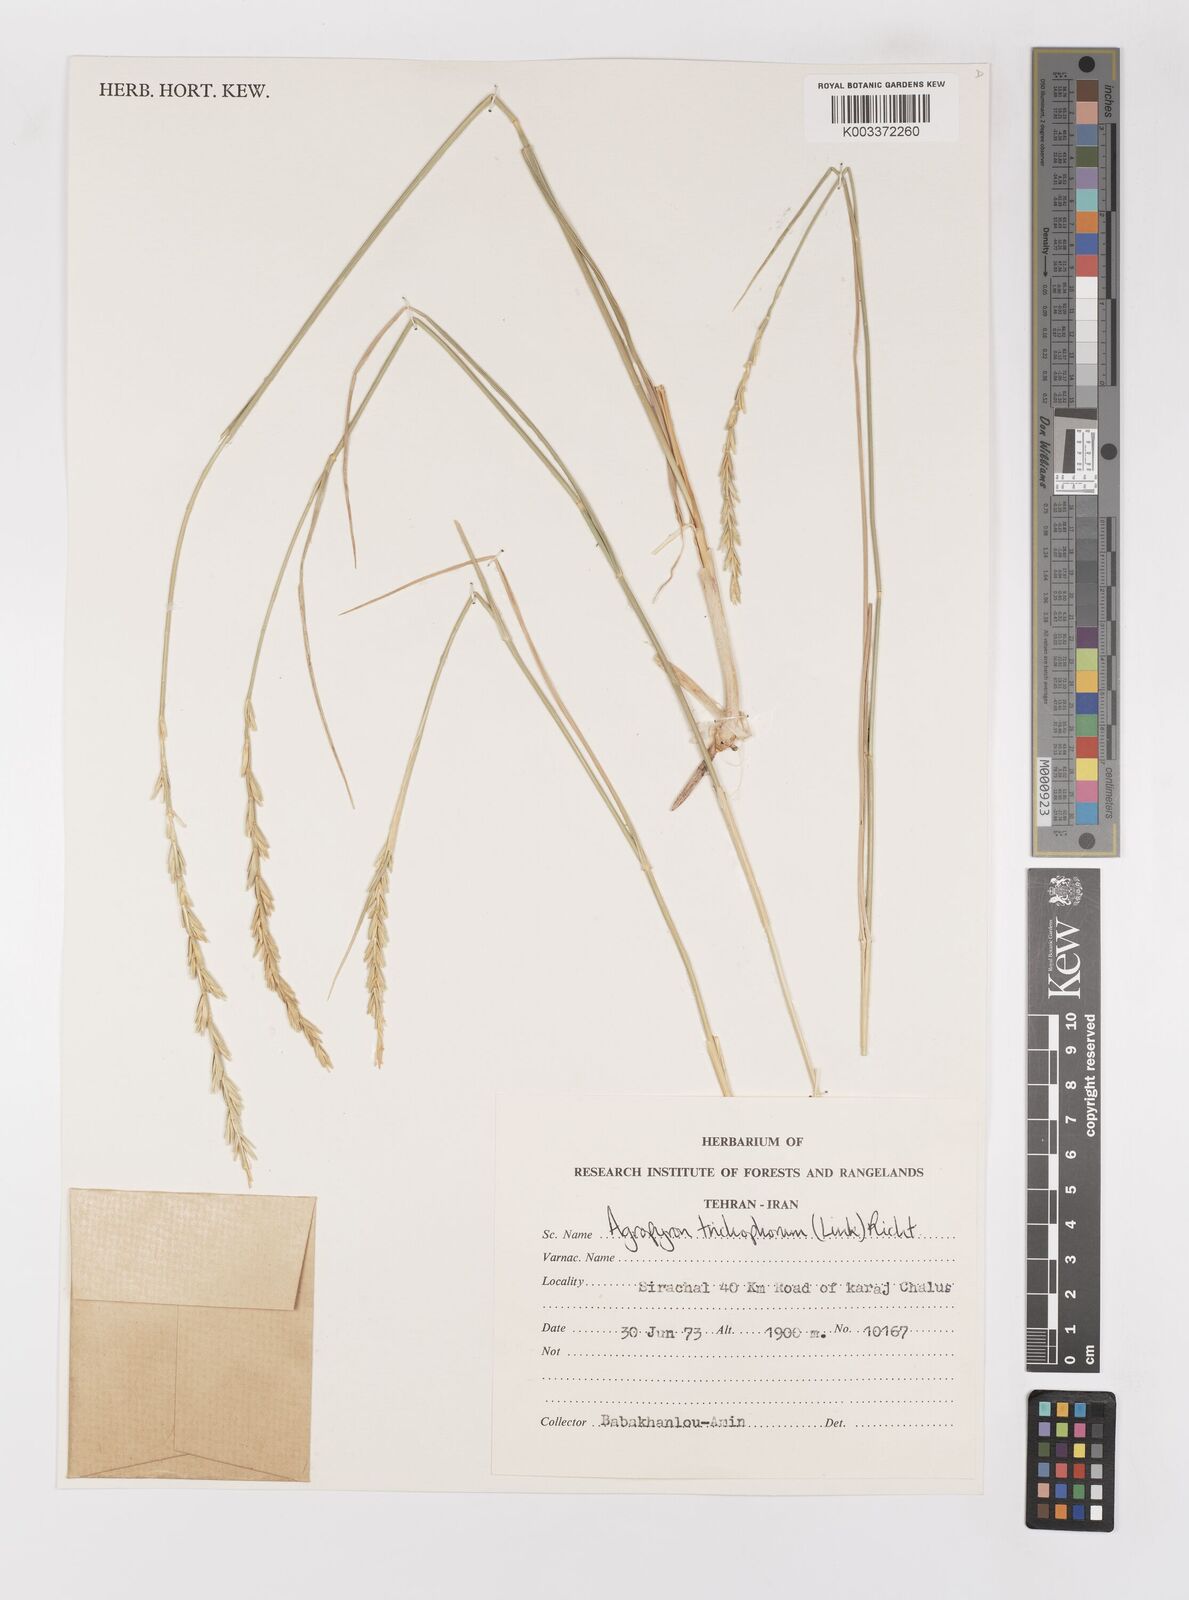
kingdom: Plantae
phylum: Tracheophyta
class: Liliopsida
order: Poales
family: Poaceae
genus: Thinopyrum
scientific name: Thinopyrum intermedium
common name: Intermediate wheatgrass
